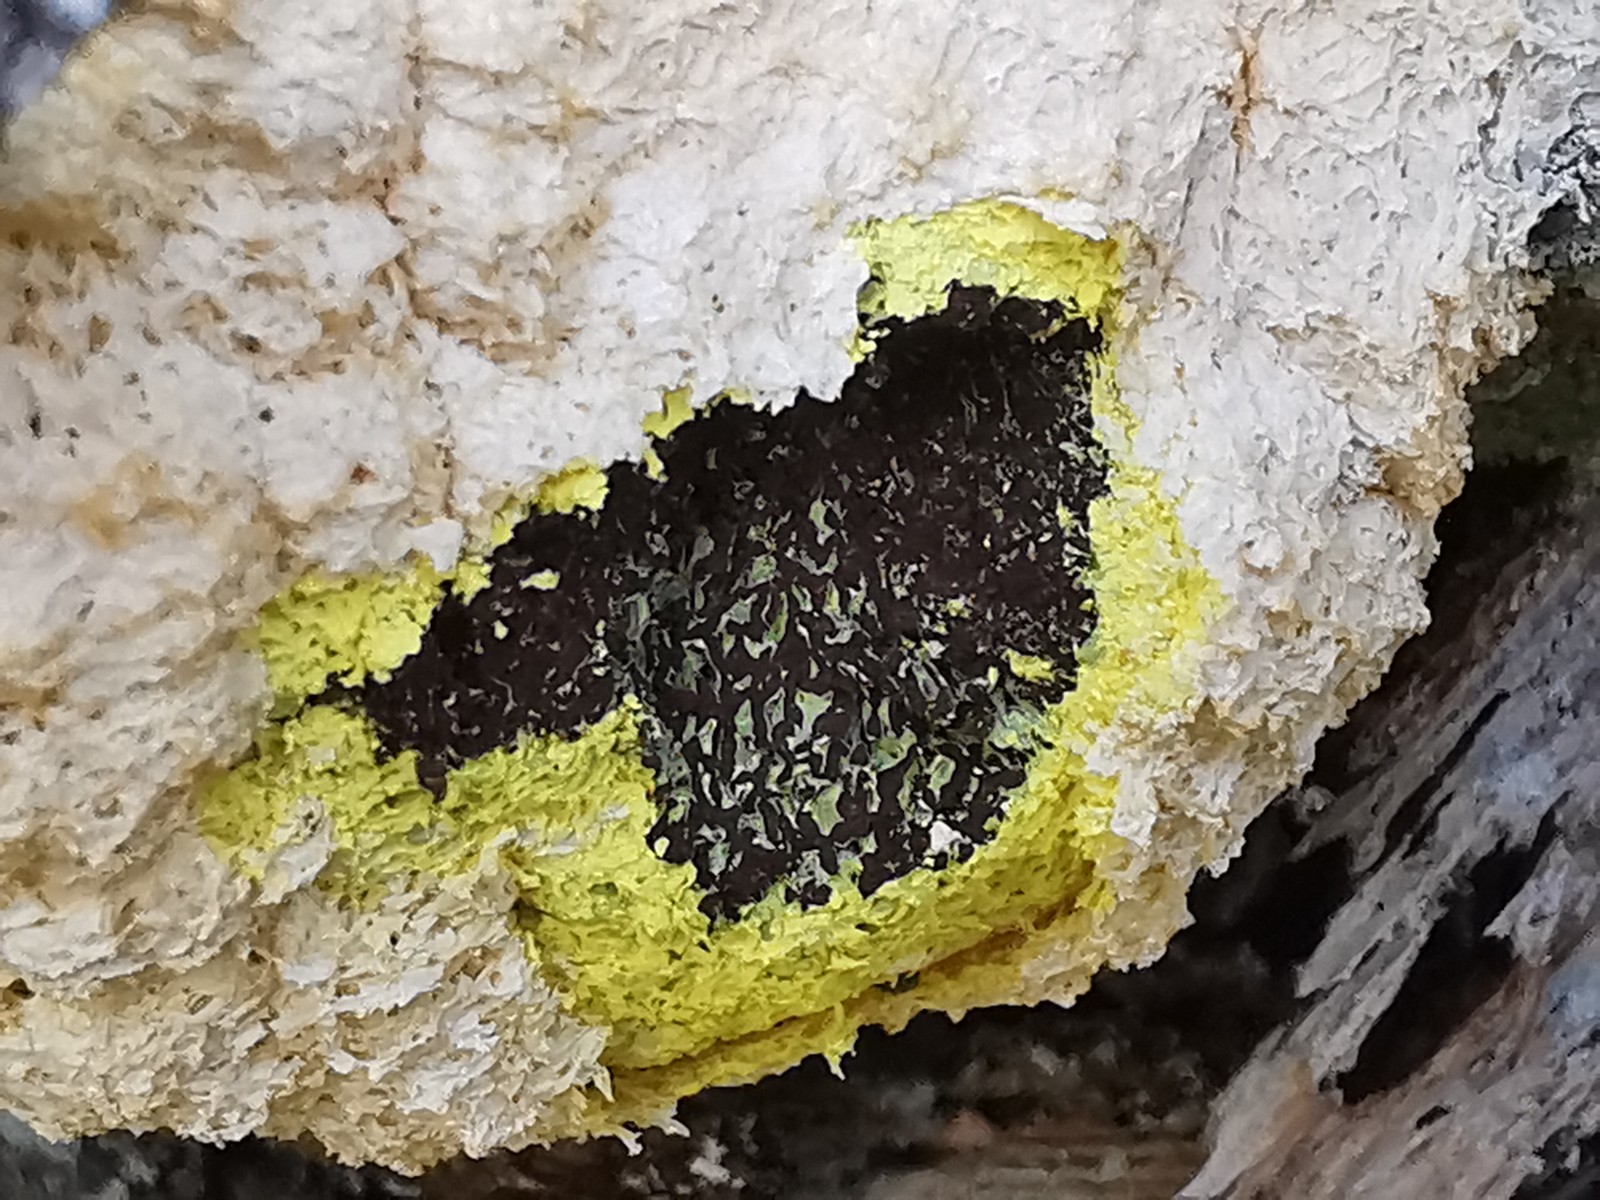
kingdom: Protozoa
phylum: Mycetozoa
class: Myxomycetes
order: Physarales
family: Physaraceae
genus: Fuligo
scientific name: Fuligo septica
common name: gul troldsmør
